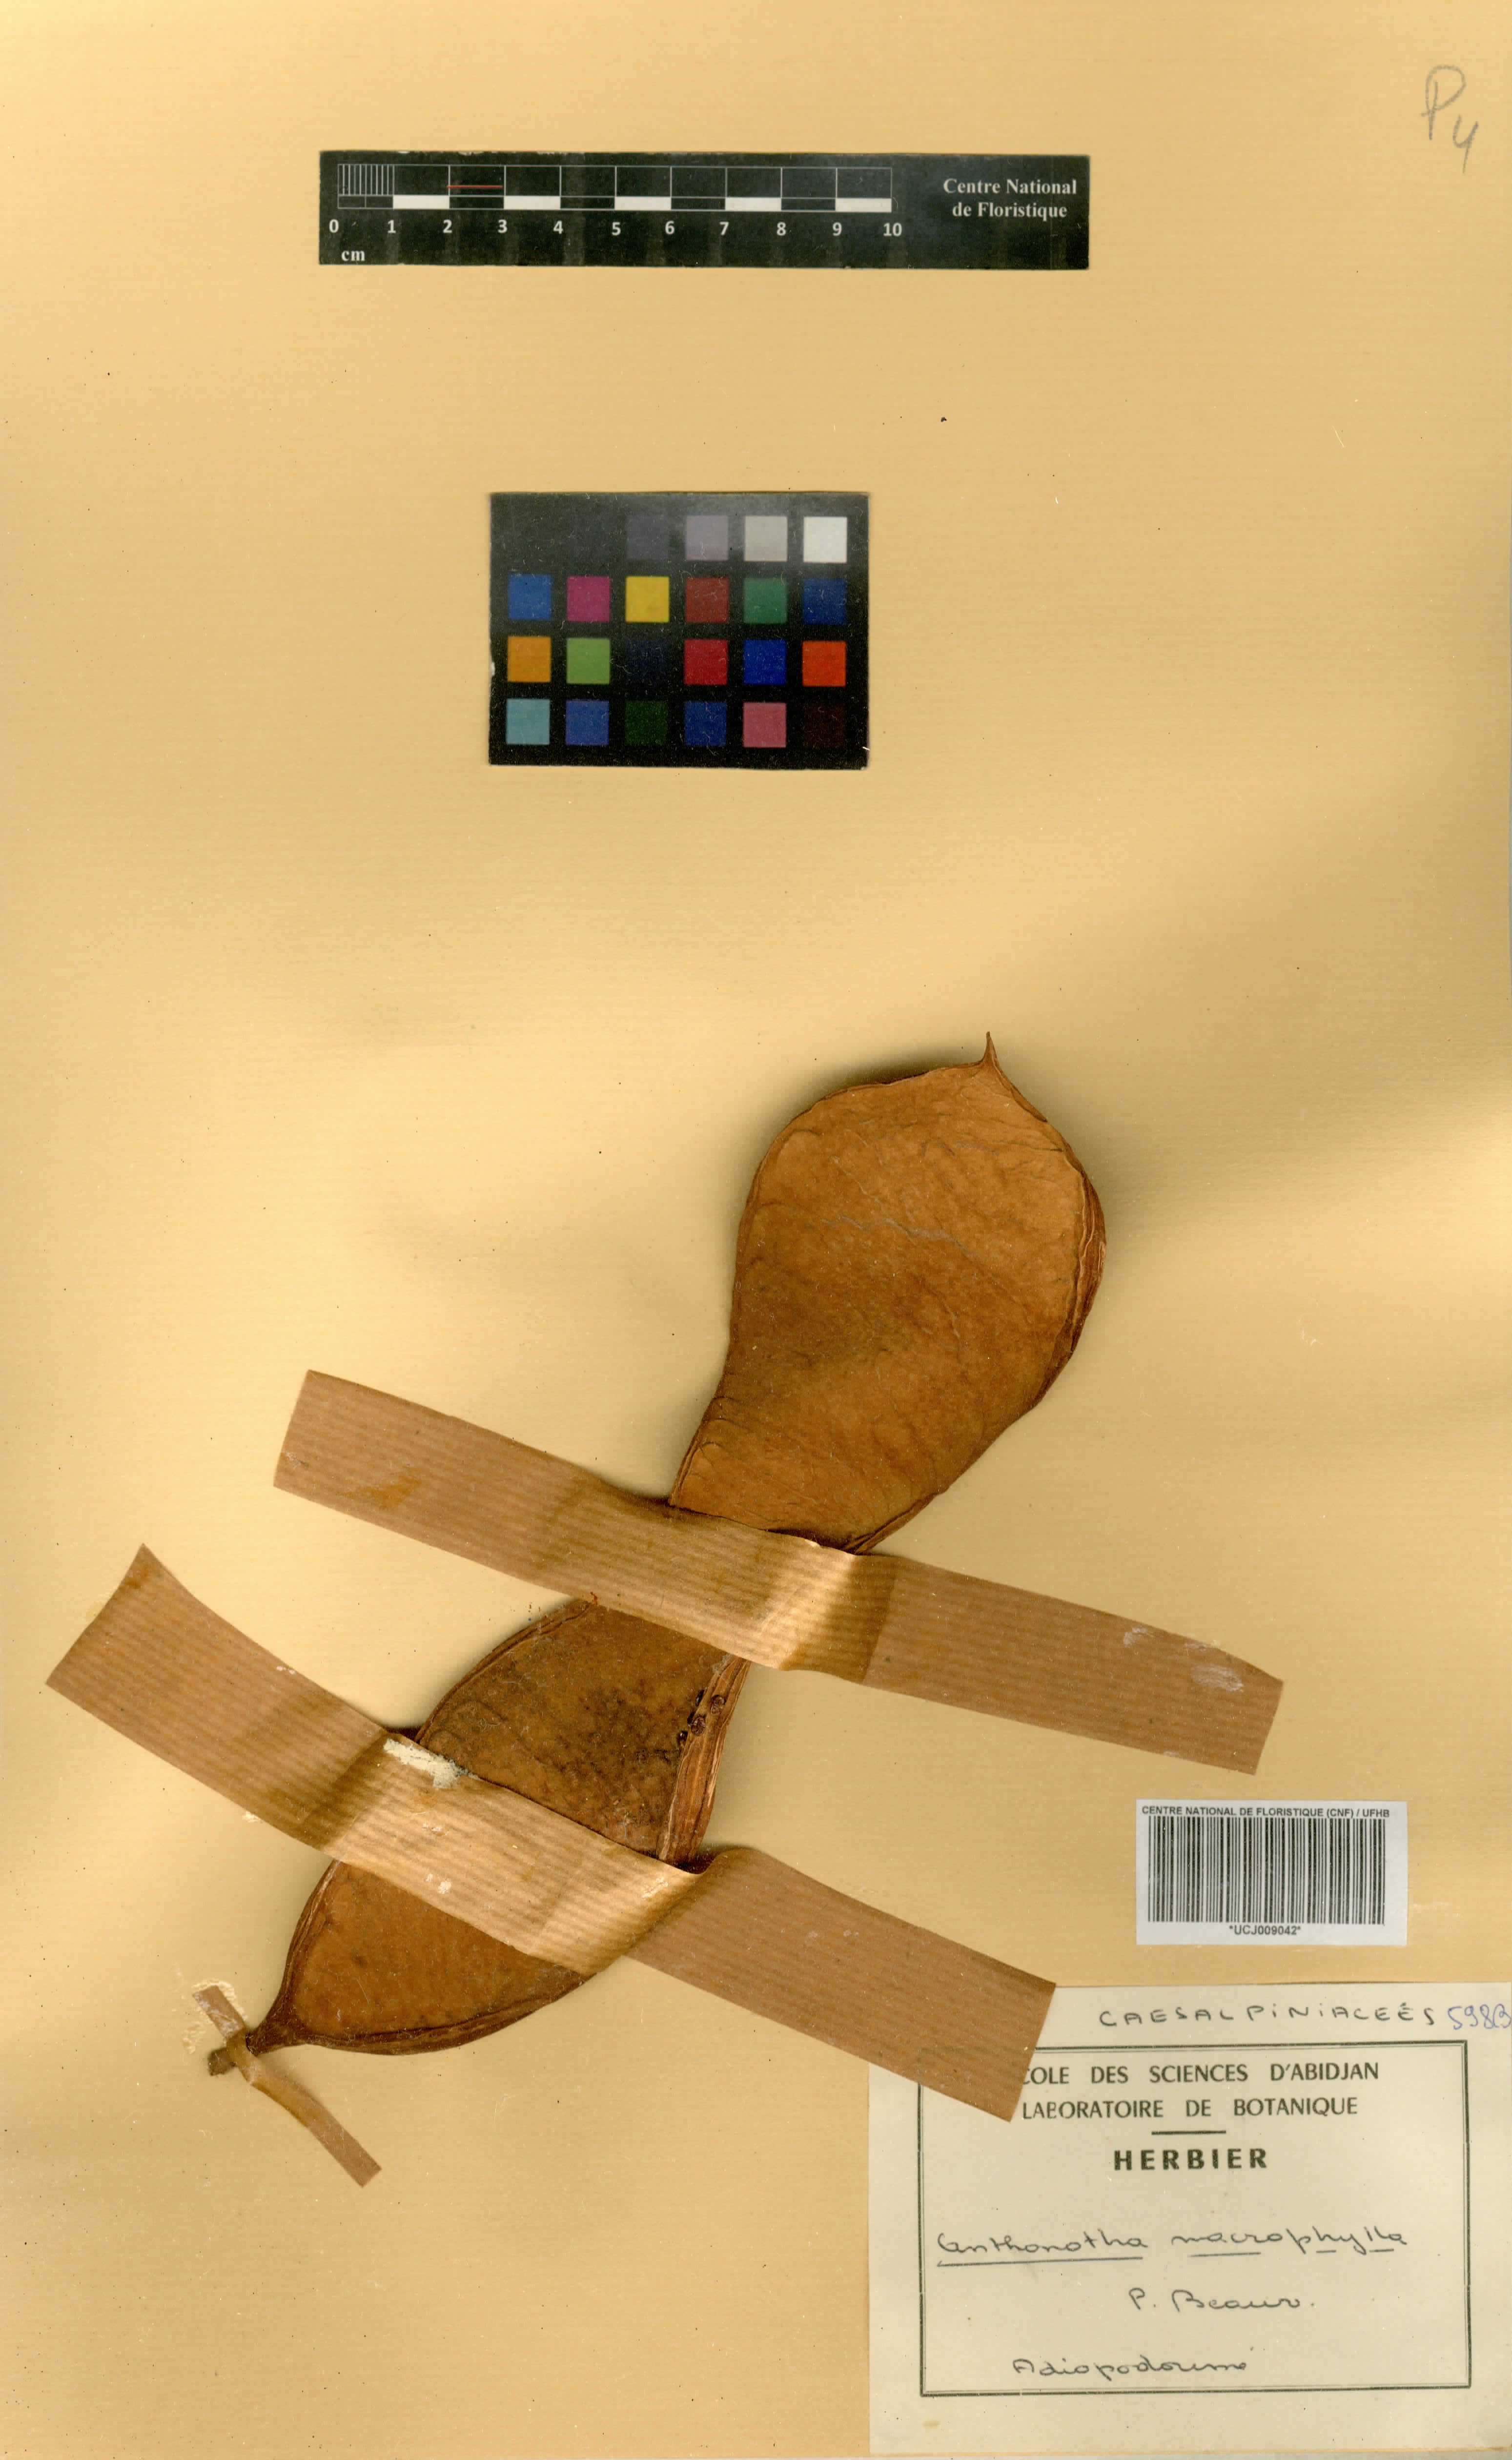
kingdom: Plantae
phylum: Tracheophyta
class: Magnoliopsida
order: Fabales
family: Fabaceae
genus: Anthonotha
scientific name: Anthonotha macrophylla
